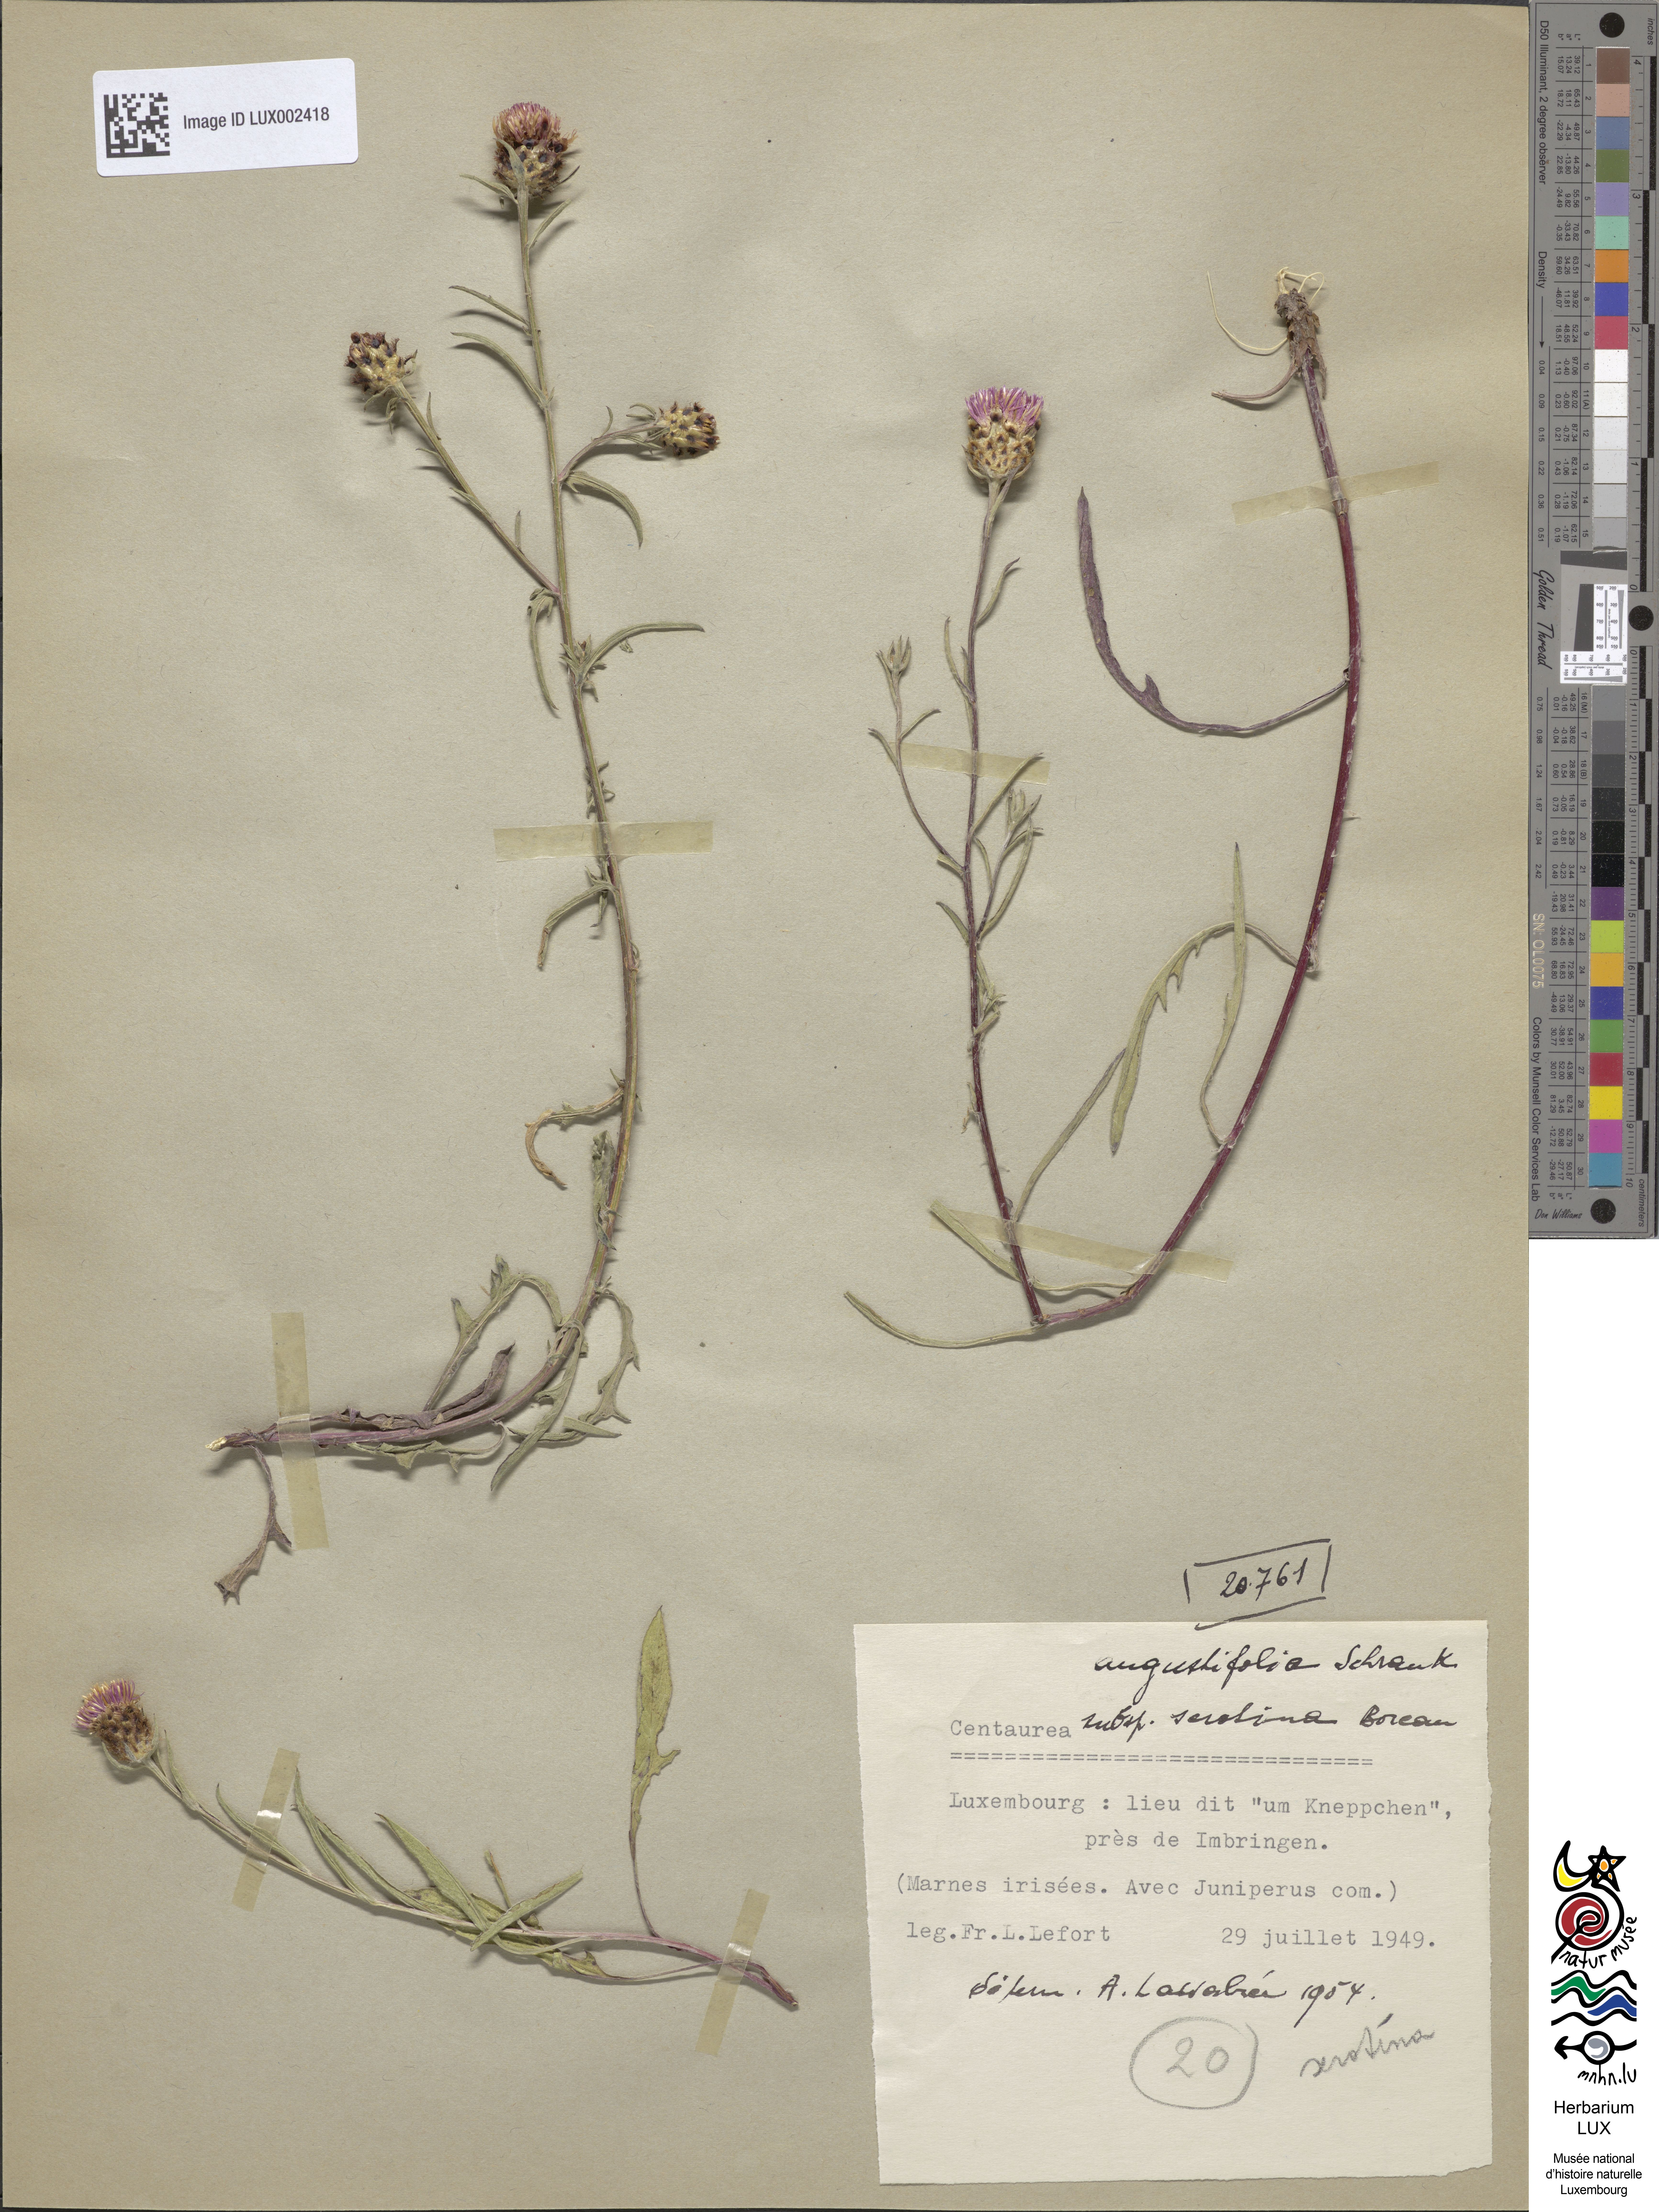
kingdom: Plantae
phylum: Tracheophyta
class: Magnoliopsida
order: Asterales
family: Asteraceae
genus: Centaurea
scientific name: Centaurea
